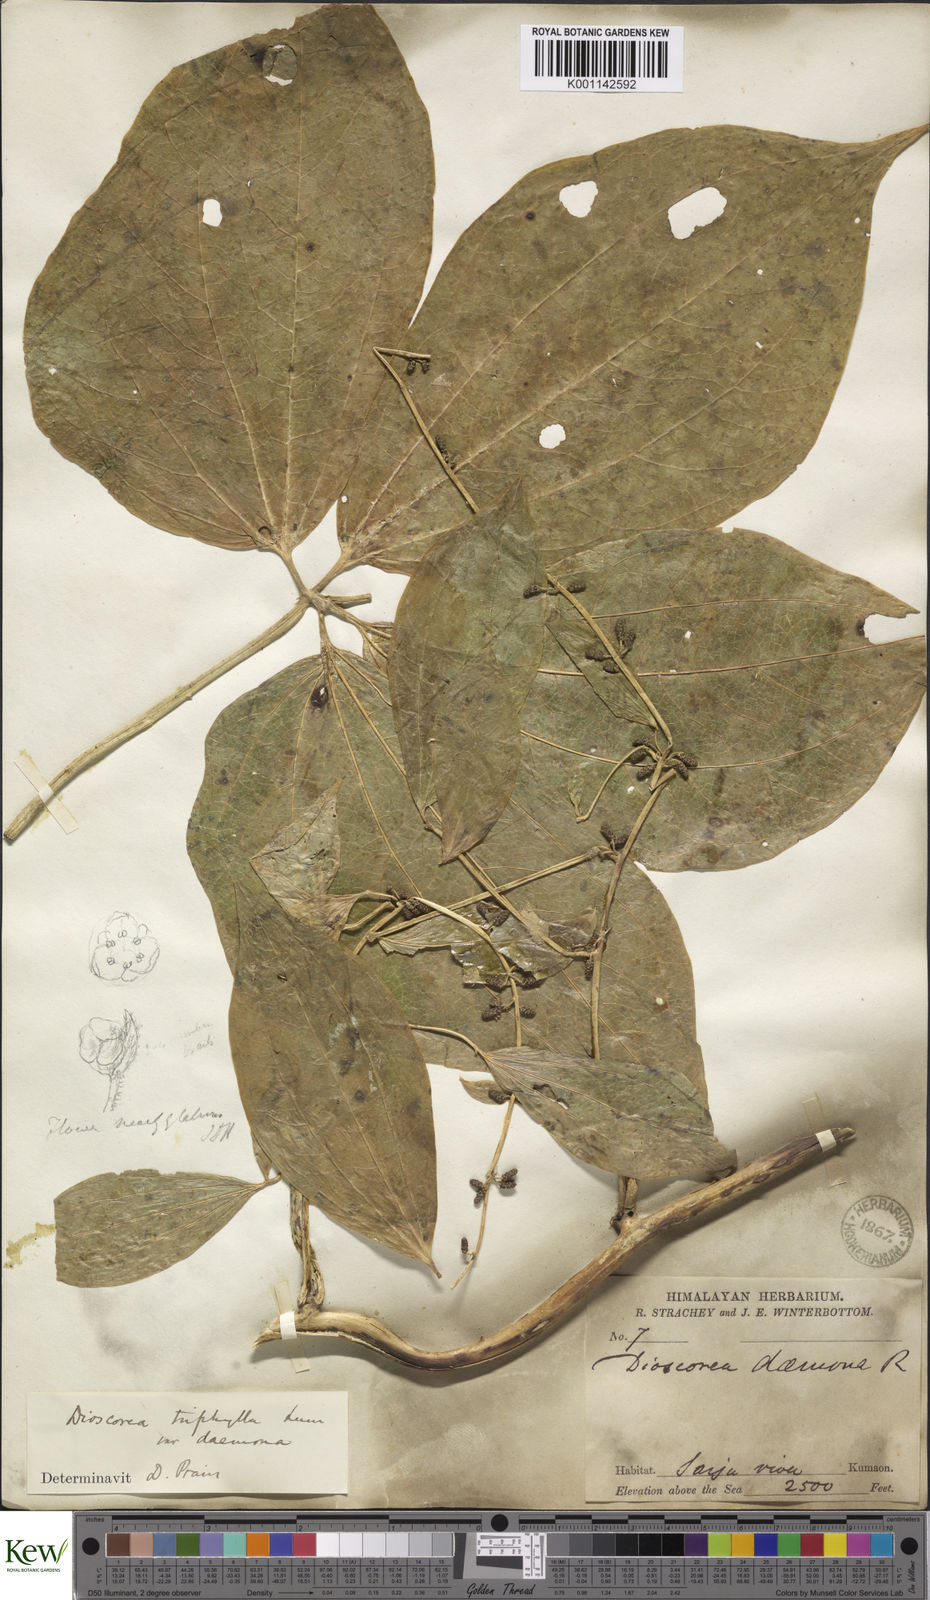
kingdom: Plantae
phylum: Tracheophyta
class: Liliopsida
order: Dioscoreales
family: Dioscoreaceae
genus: Dioscorea
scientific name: Dioscorea pentaphylla
